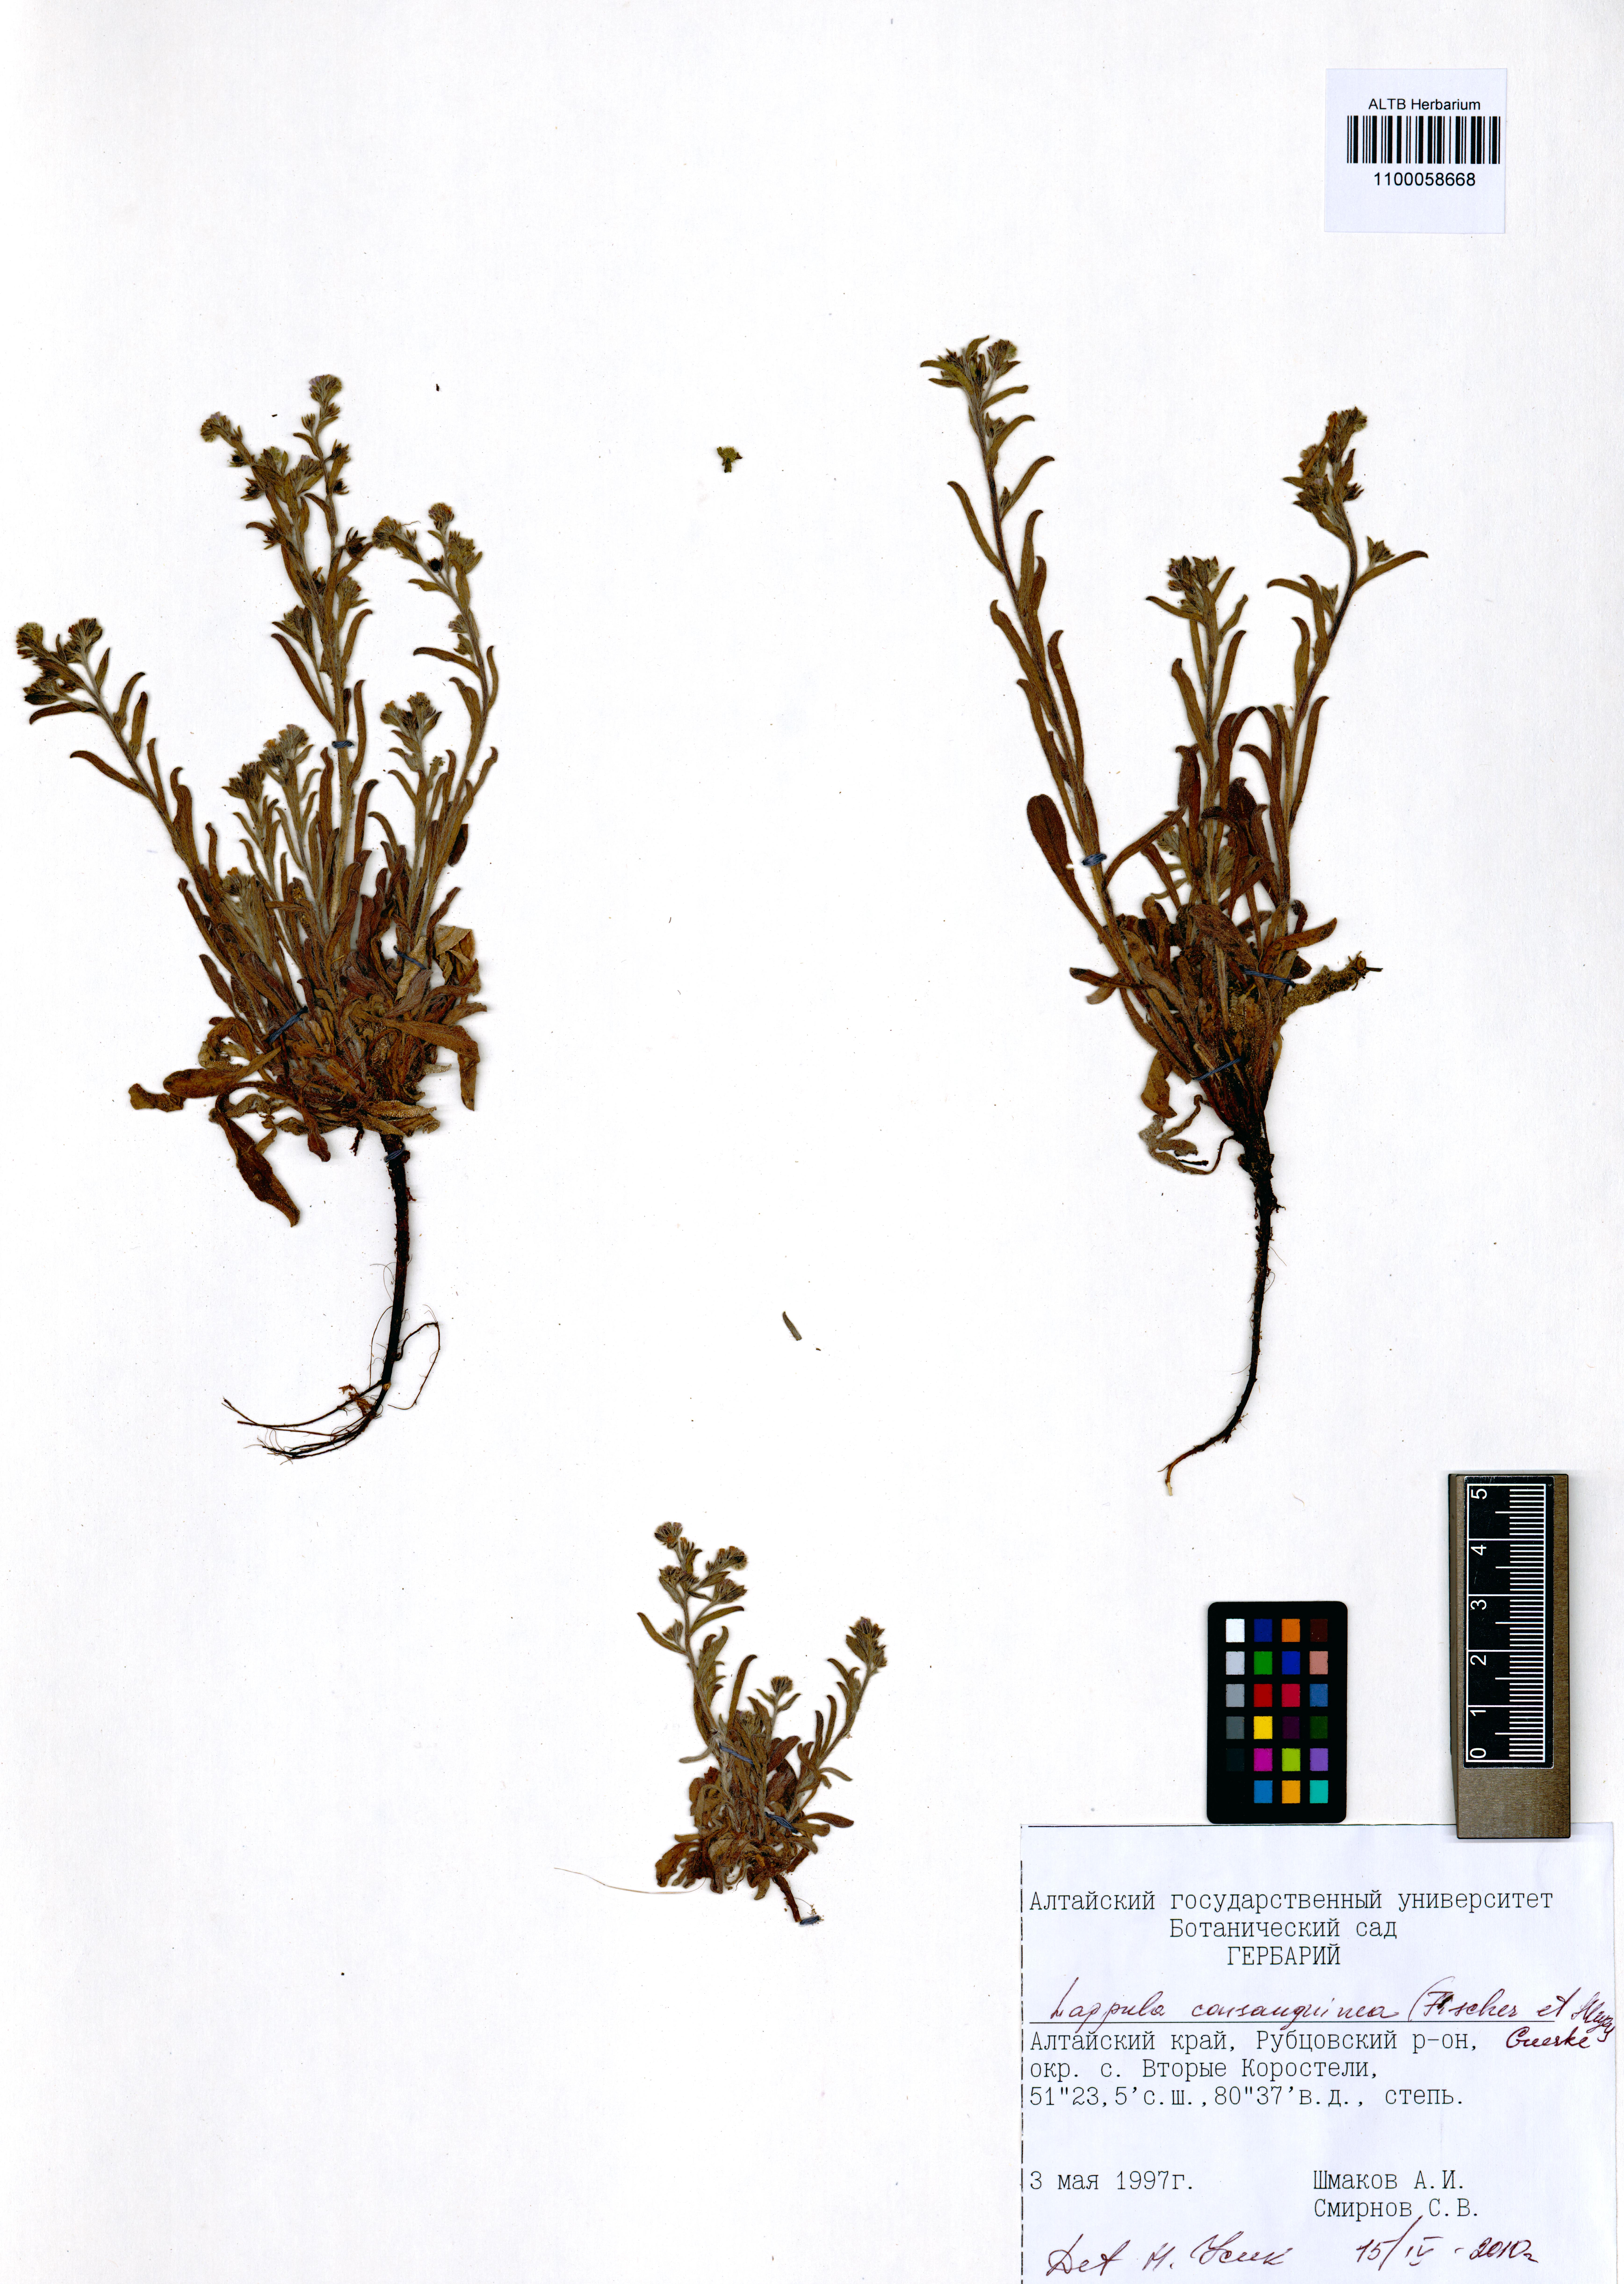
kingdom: Plantae
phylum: Tracheophyta
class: Magnoliopsida
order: Boraginales
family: Boraginaceae
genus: Lappula
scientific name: Lappula squarrosa
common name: European stickseed
